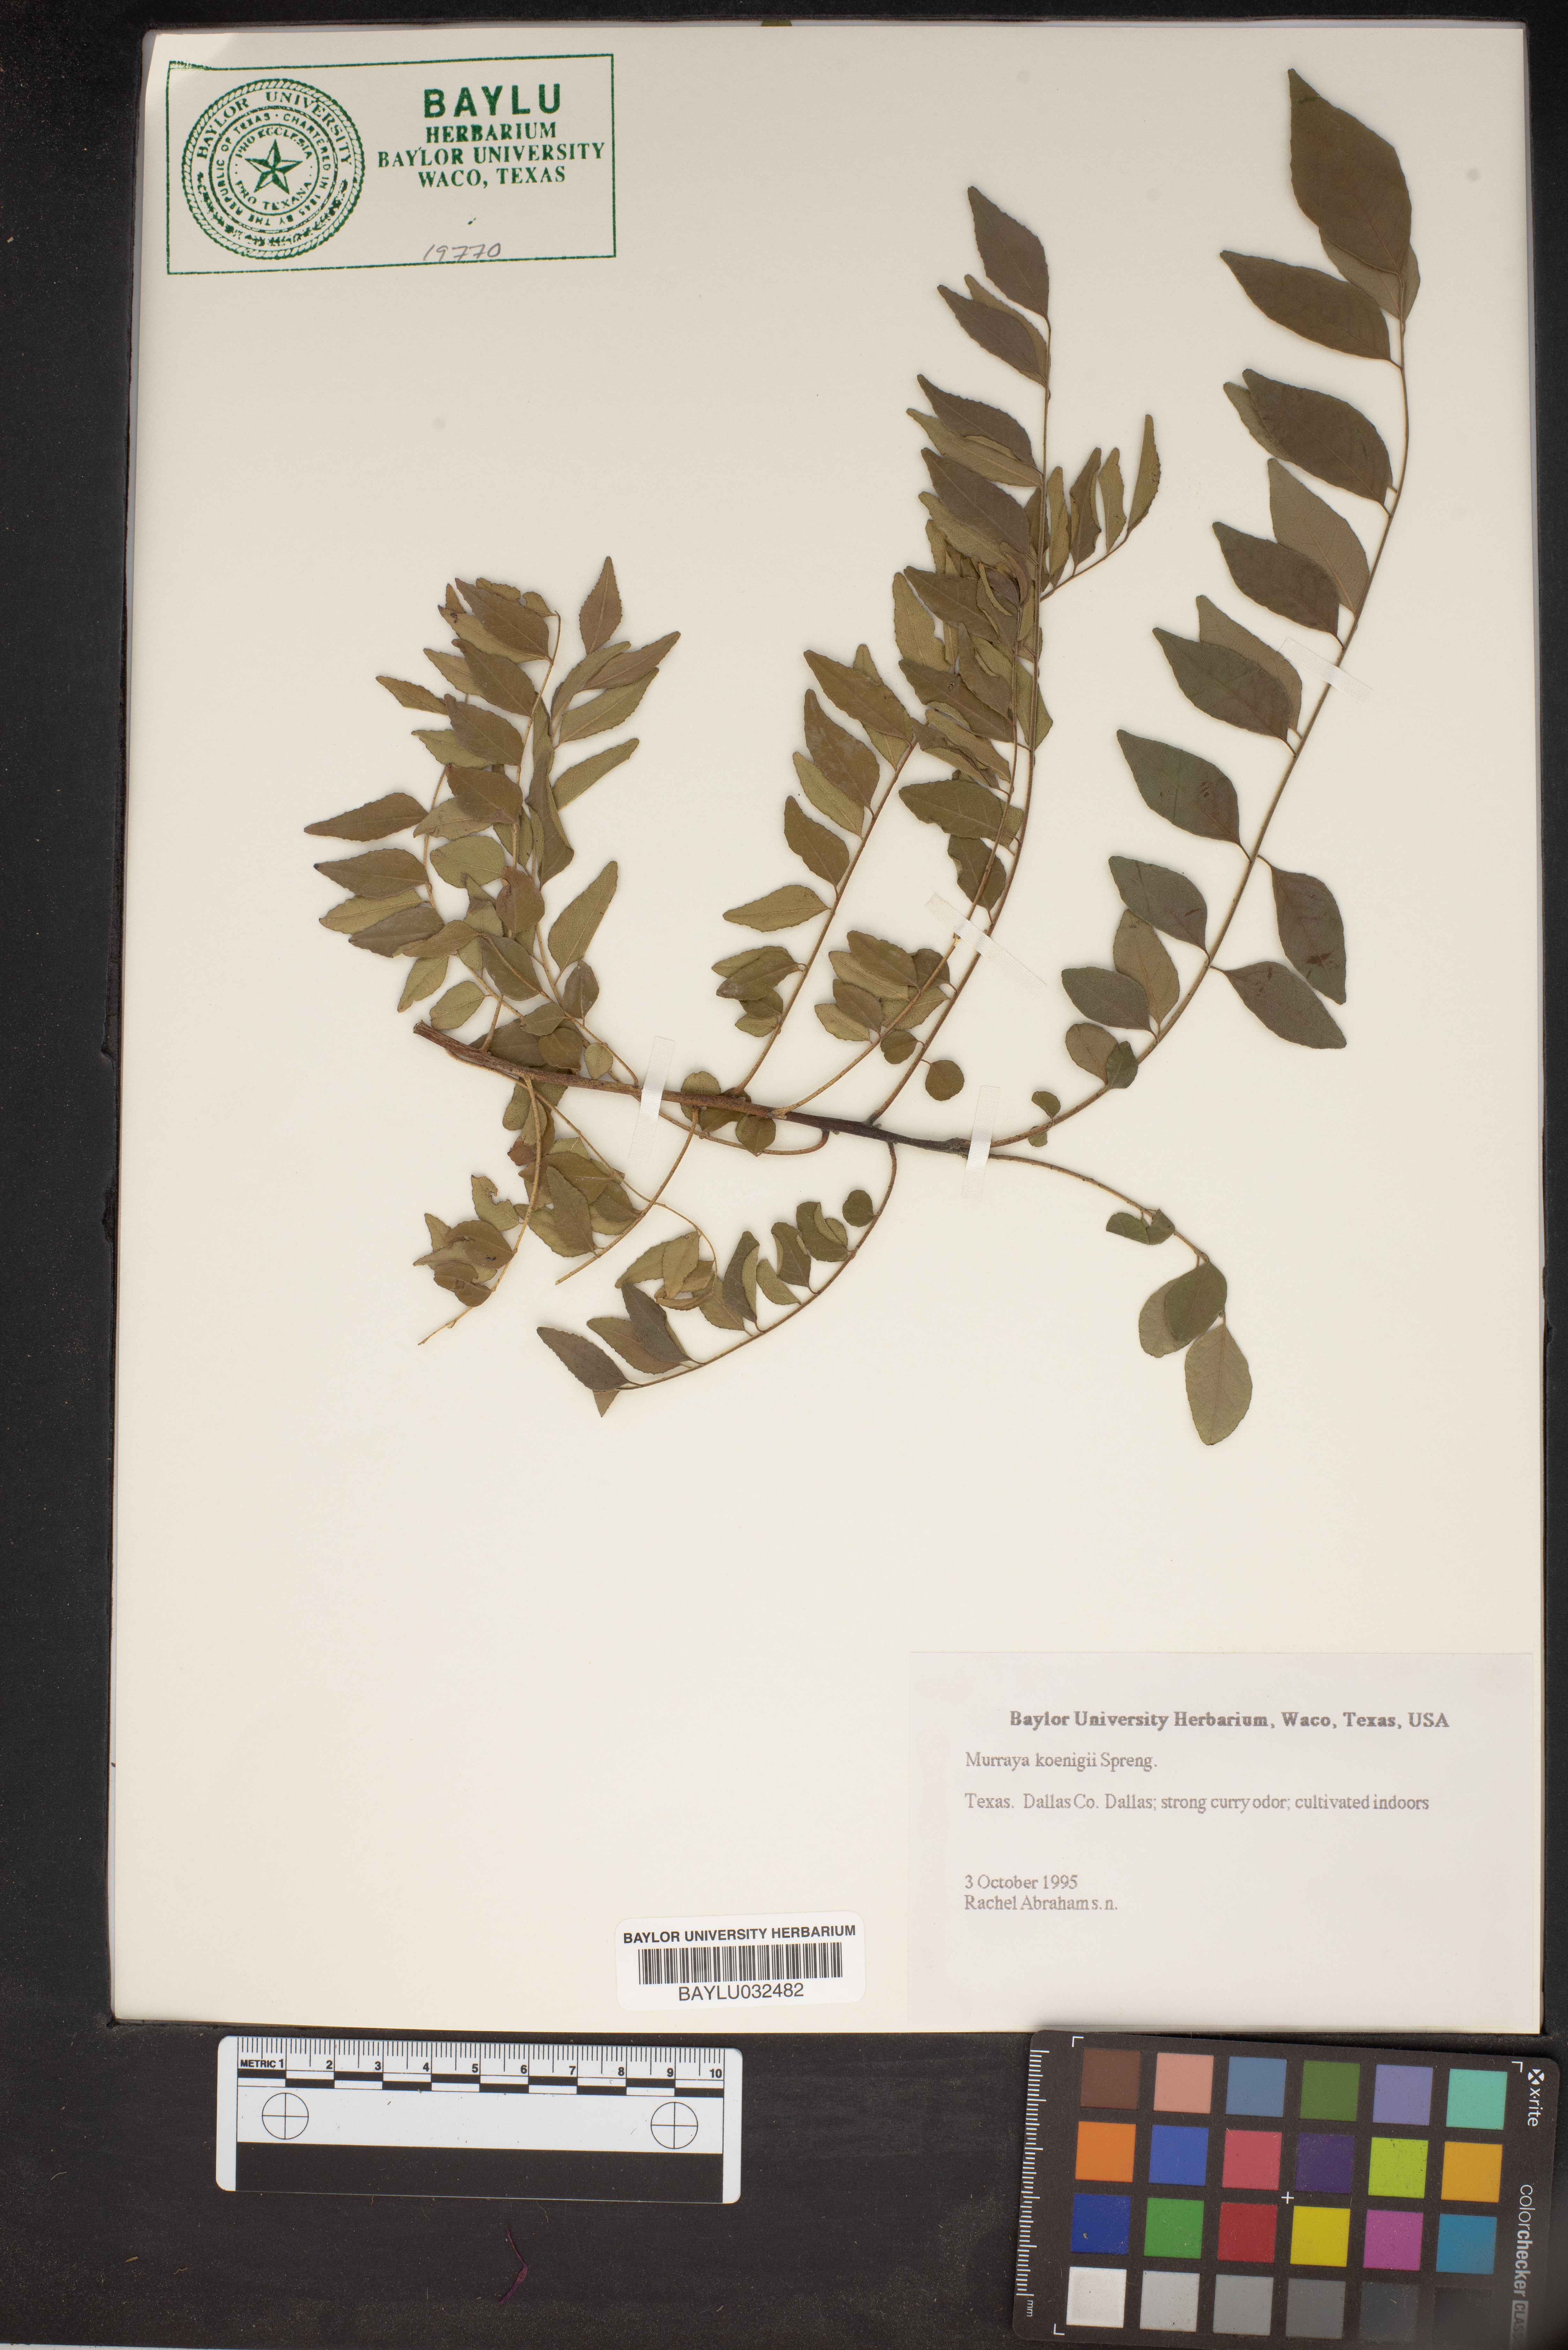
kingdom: Plantae
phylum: Tracheophyta
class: Magnoliopsida
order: Sapindales
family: Rutaceae
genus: Murraya
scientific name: Murraya koenigii
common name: Curry-plant
